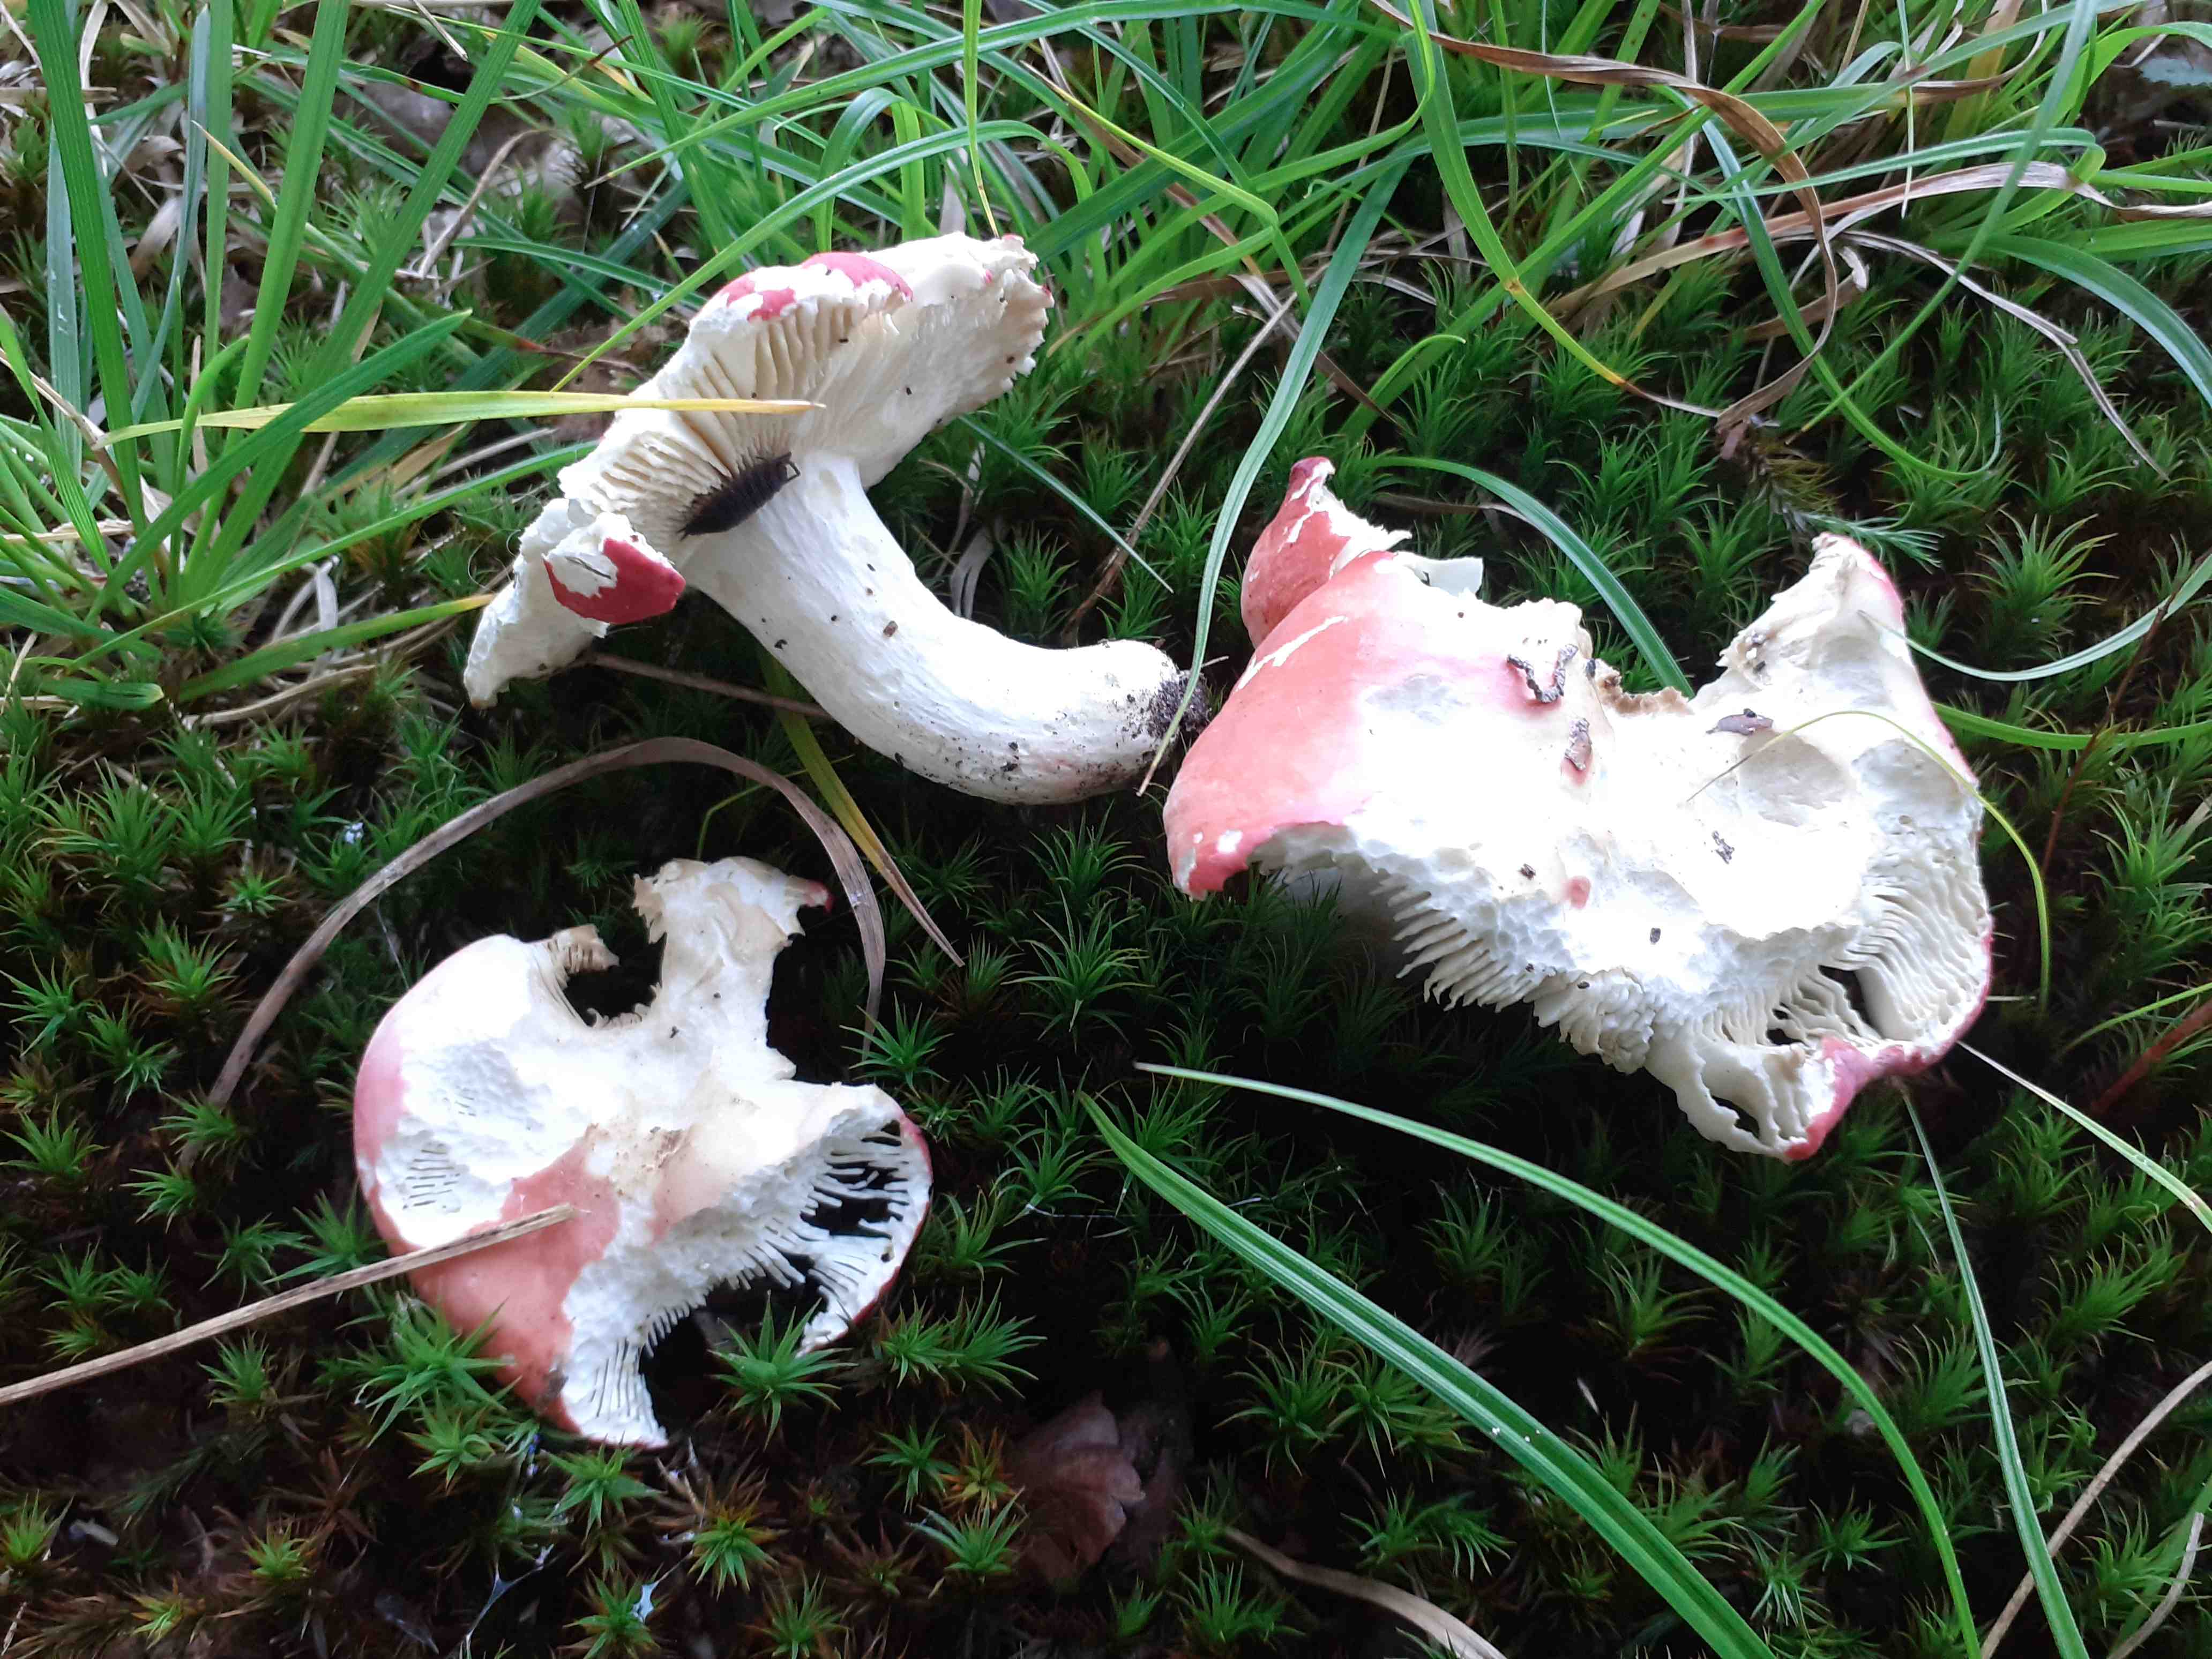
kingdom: Fungi
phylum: Basidiomycota
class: Agaricomycetes
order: Russulales
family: Russulaceae
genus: Russula
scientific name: Russula rosea
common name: fastkødet skørhat
